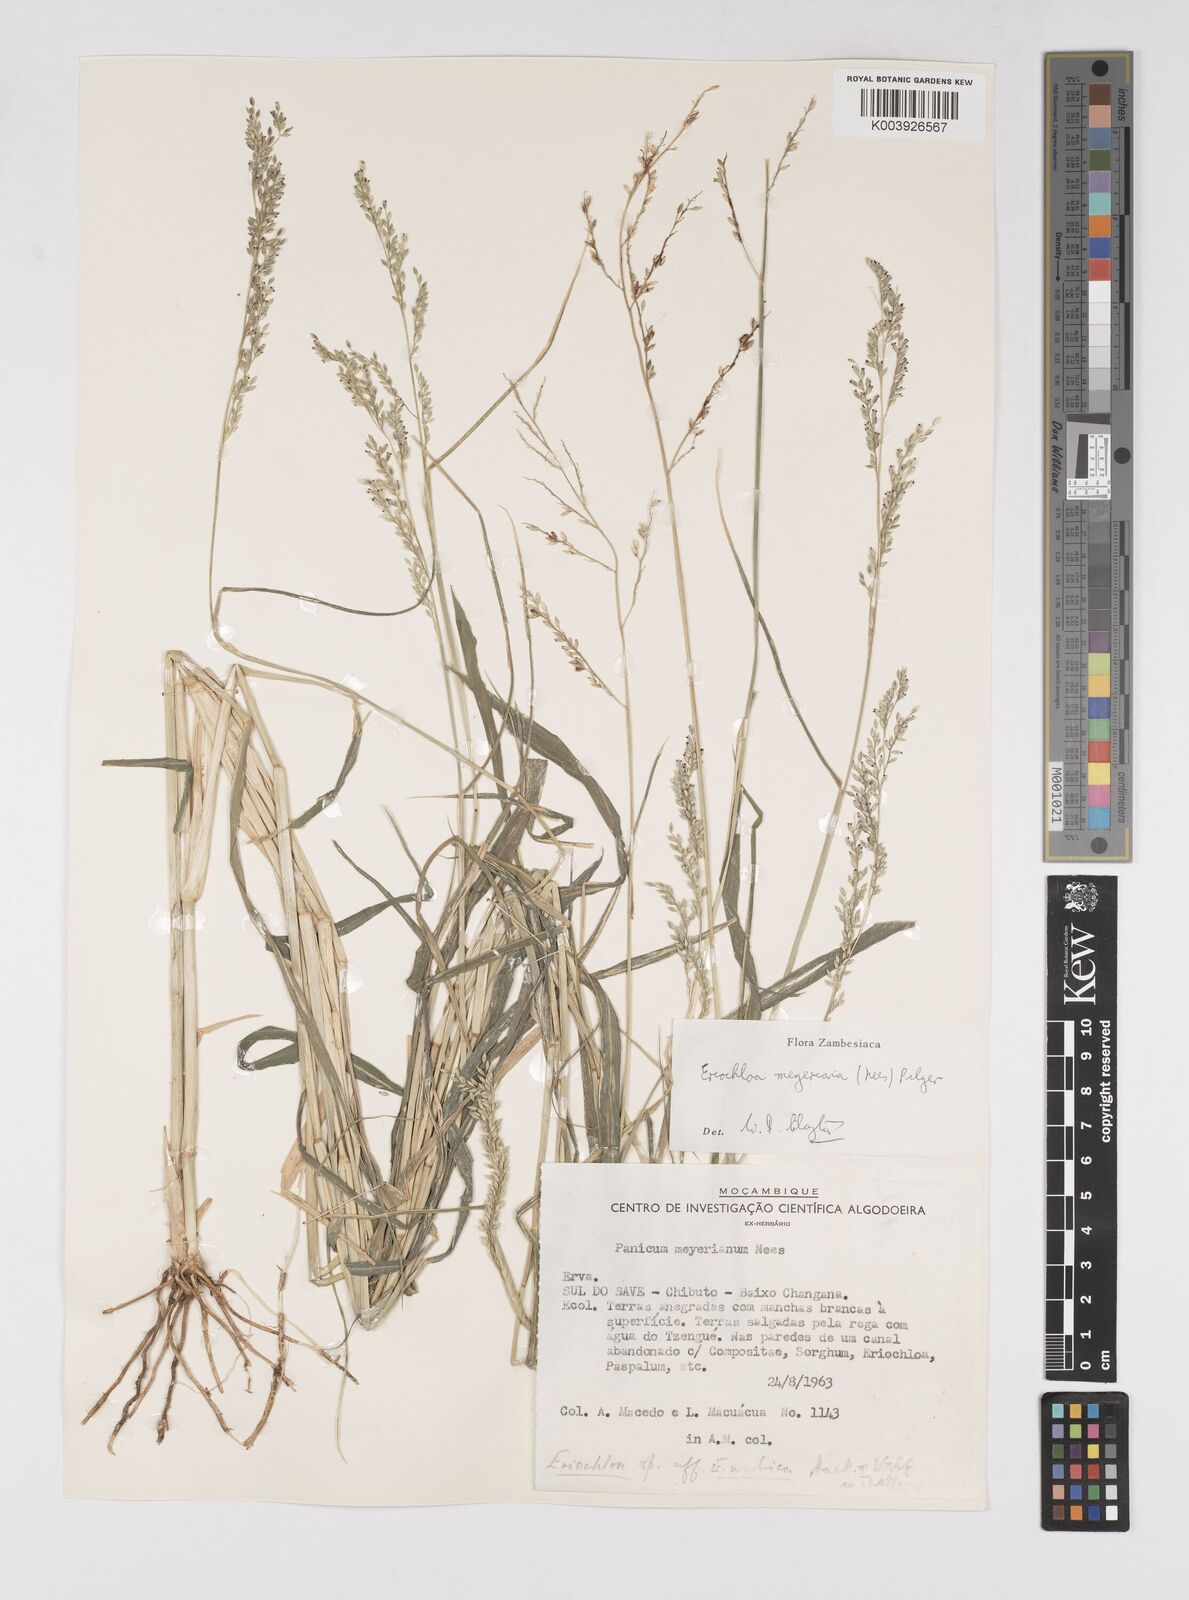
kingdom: Plantae
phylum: Tracheophyta
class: Liliopsida
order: Poales
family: Poaceae
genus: Eriochloa
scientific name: Eriochloa meyeriana
